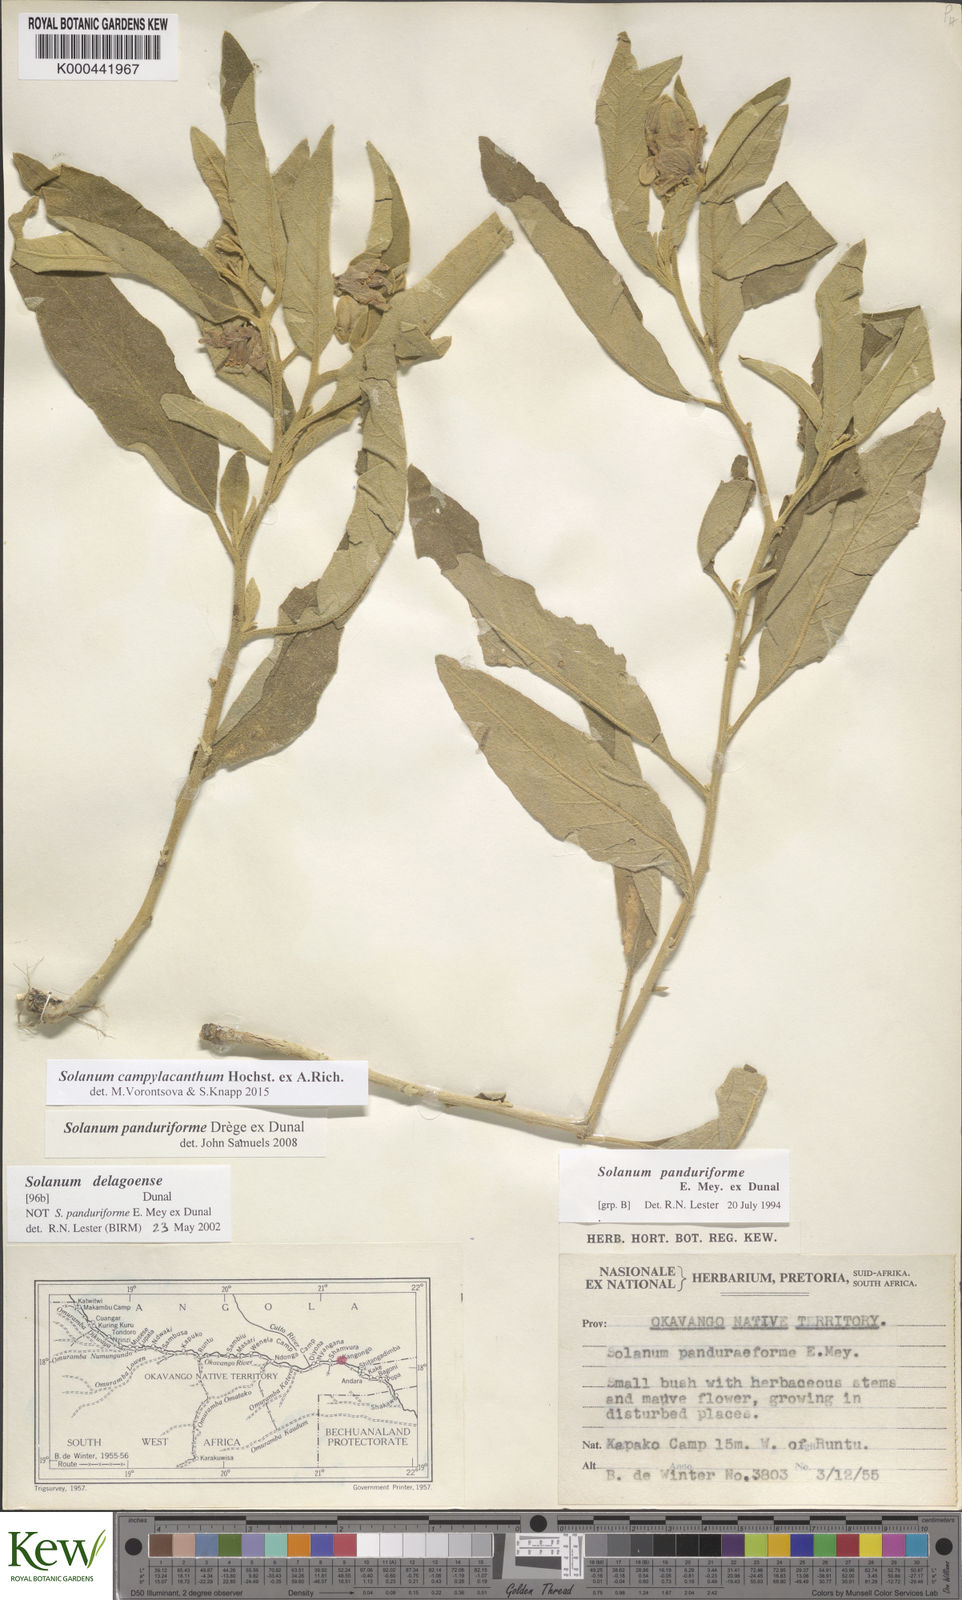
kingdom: Plantae
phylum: Tracheophyta
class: Magnoliopsida
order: Solanales
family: Solanaceae
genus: Solanum
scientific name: Solanum campylacanthum
